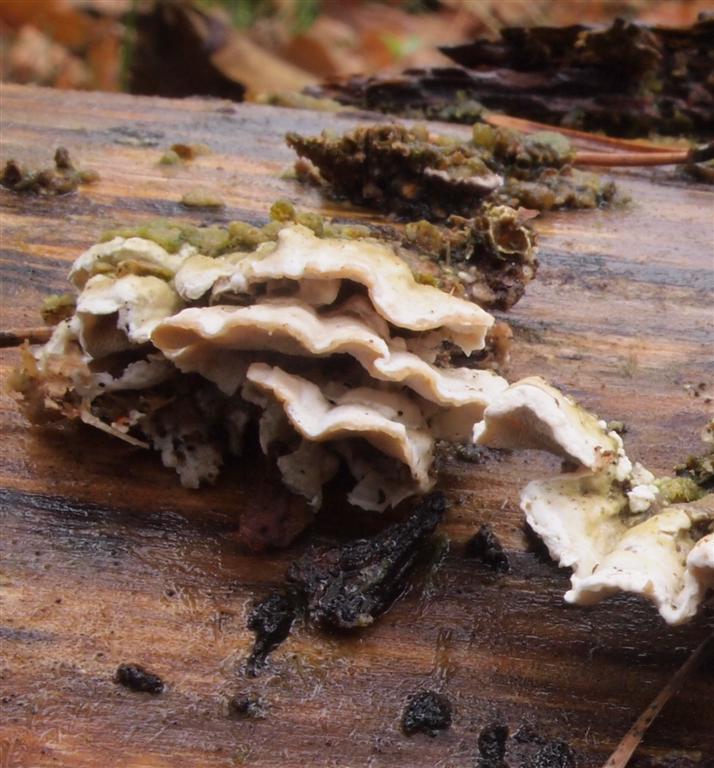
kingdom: Fungi
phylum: Basidiomycota
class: Agaricomycetes
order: Polyporales
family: Incrustoporiaceae
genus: Skeletocutis
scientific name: Skeletocutis carneogrisea
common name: rødgrå krystalporesvamp
